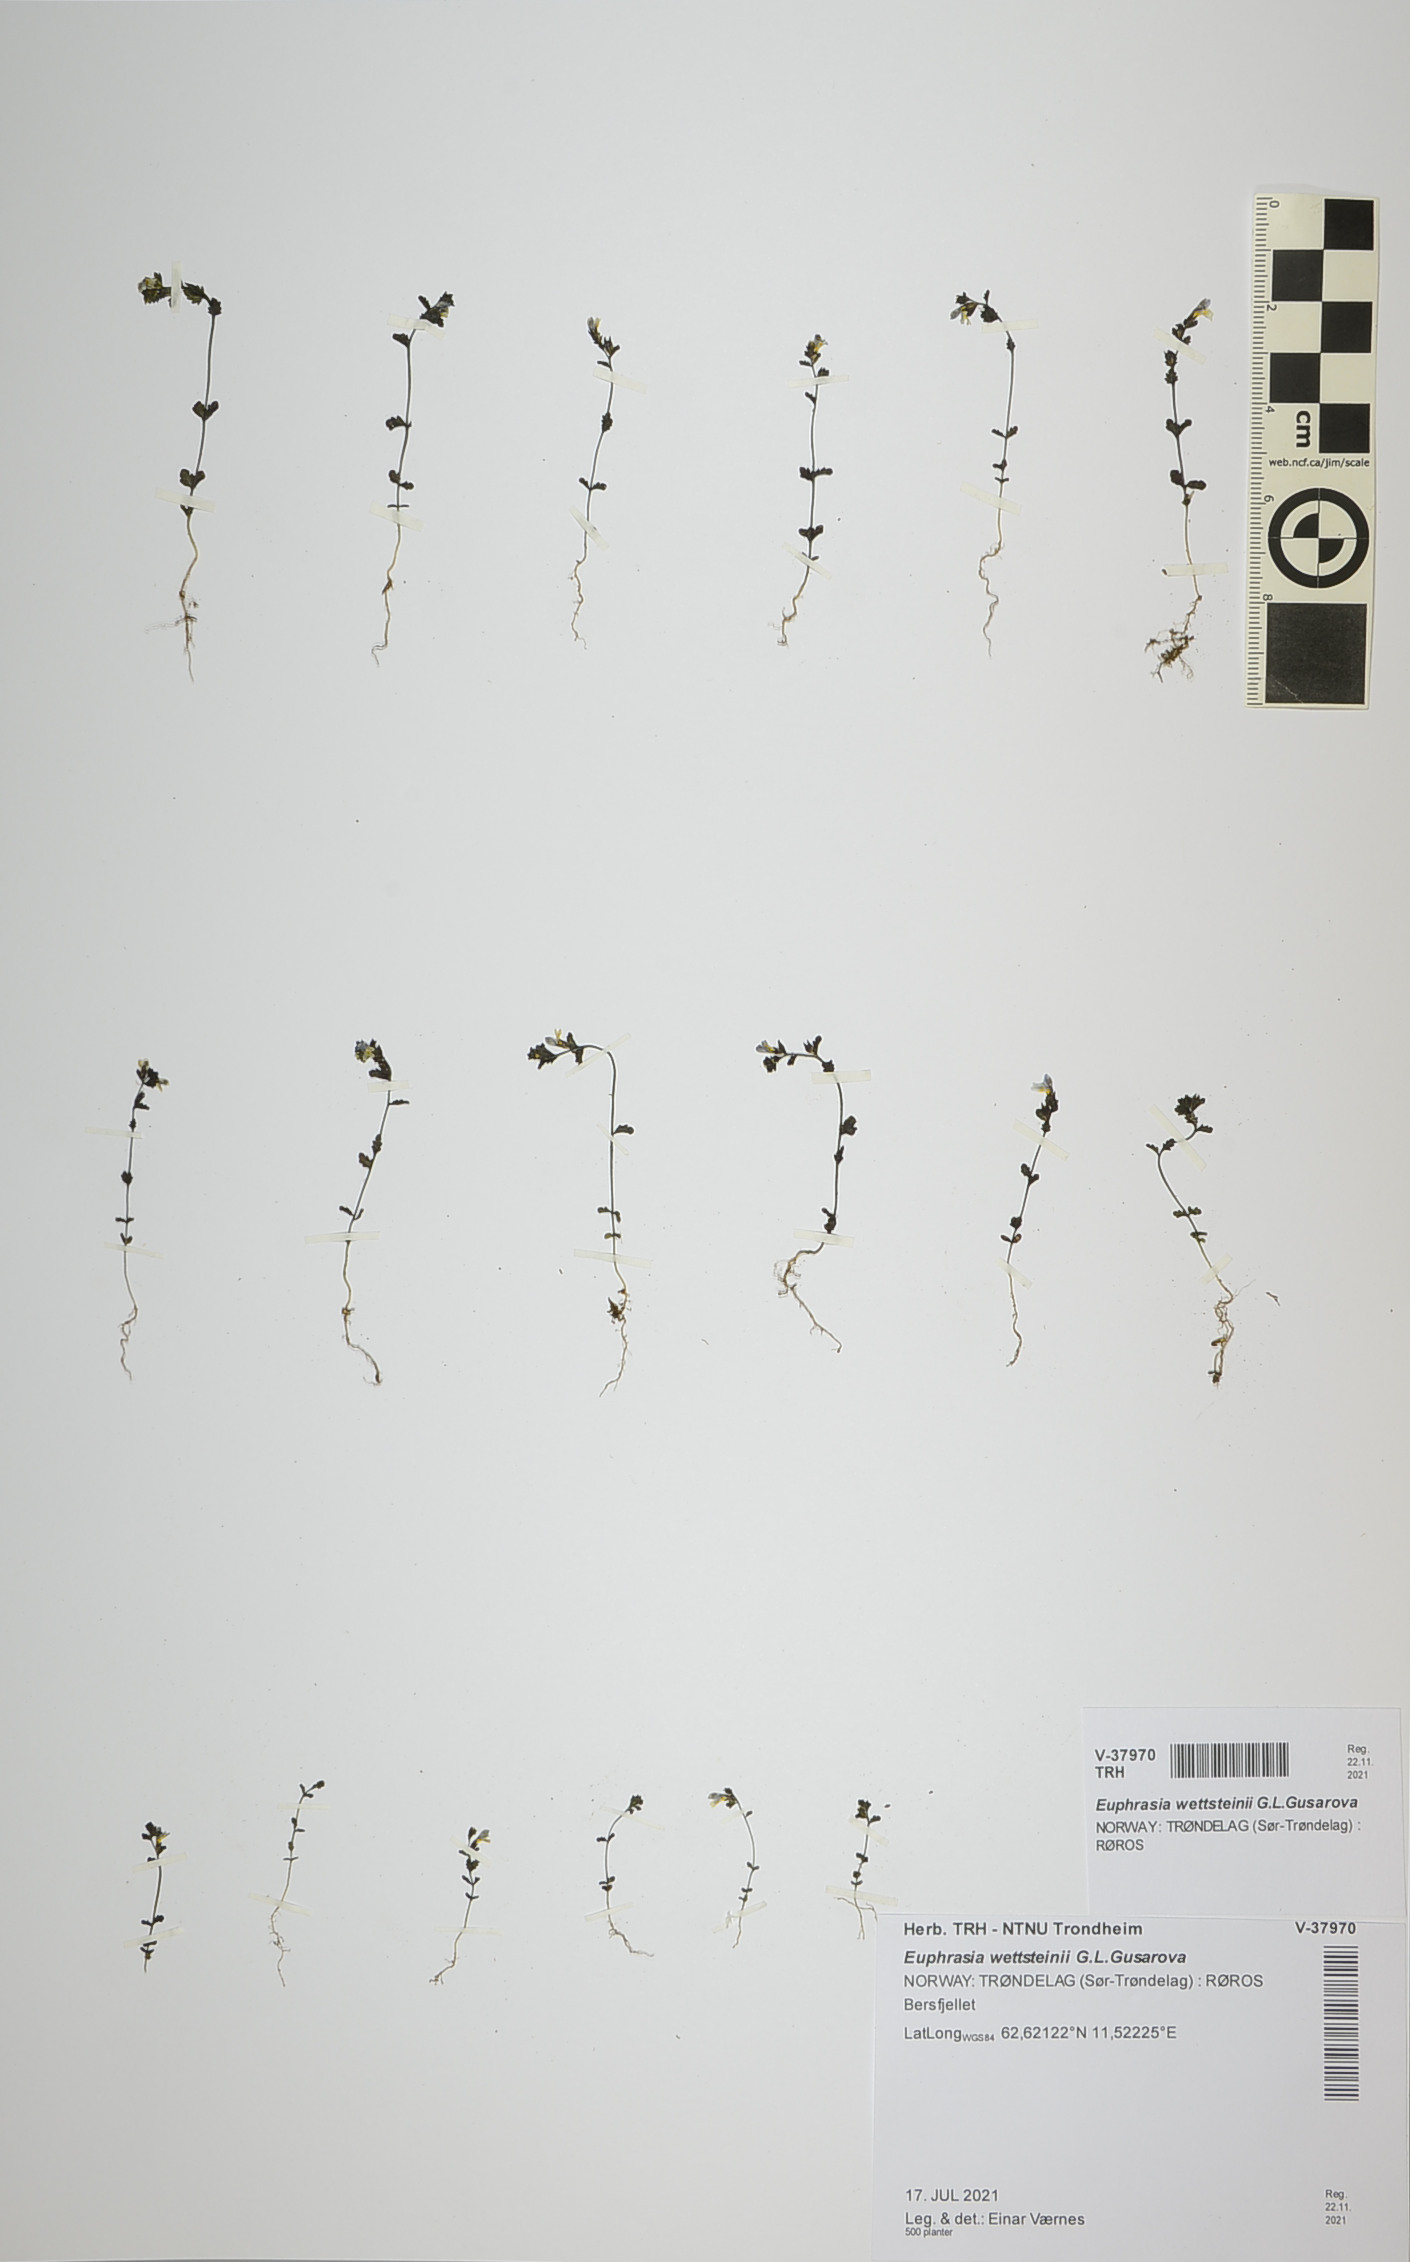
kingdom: Plantae
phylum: Tracheophyta
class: Magnoliopsida
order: Lamiales
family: Orobanchaceae
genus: Euphrasia
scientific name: Euphrasia wettsteinii
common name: Wettstein's eyebright
